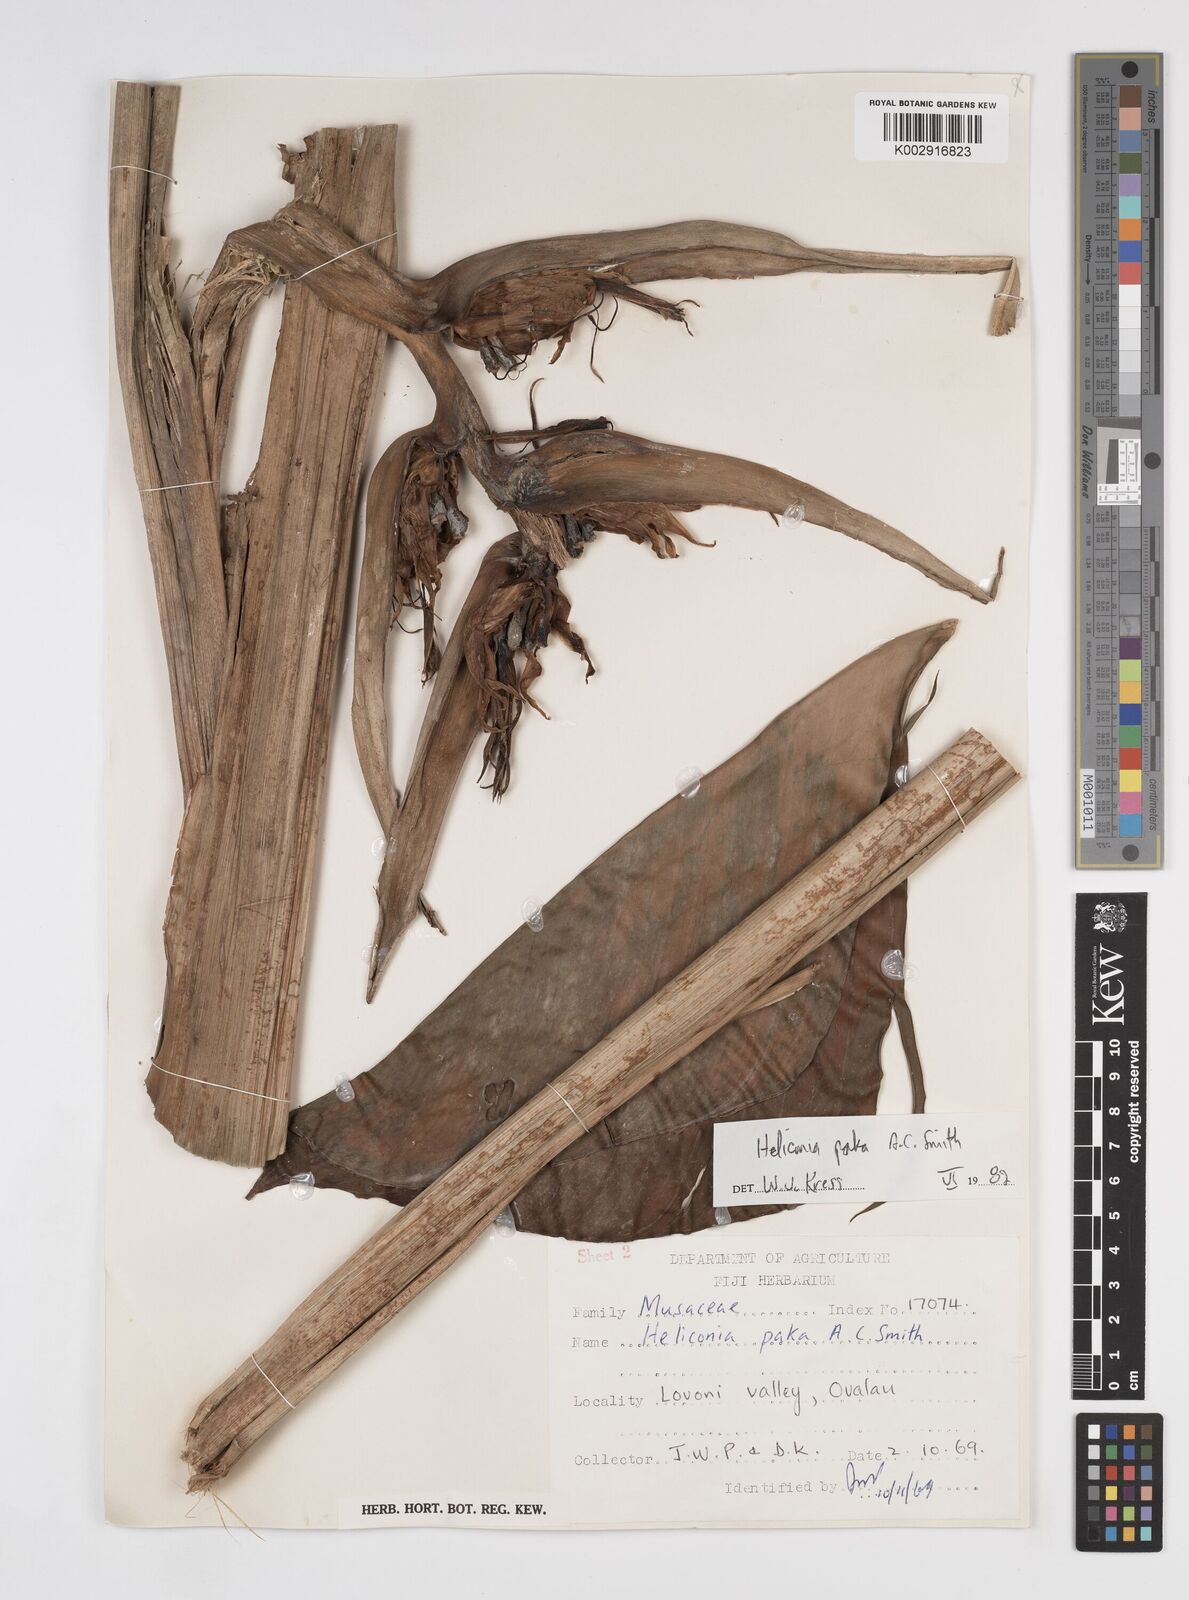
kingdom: Plantae
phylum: Tracheophyta
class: Liliopsida
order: Zingiberales
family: Heliconiaceae
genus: Heliconia
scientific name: Heliconia paka
